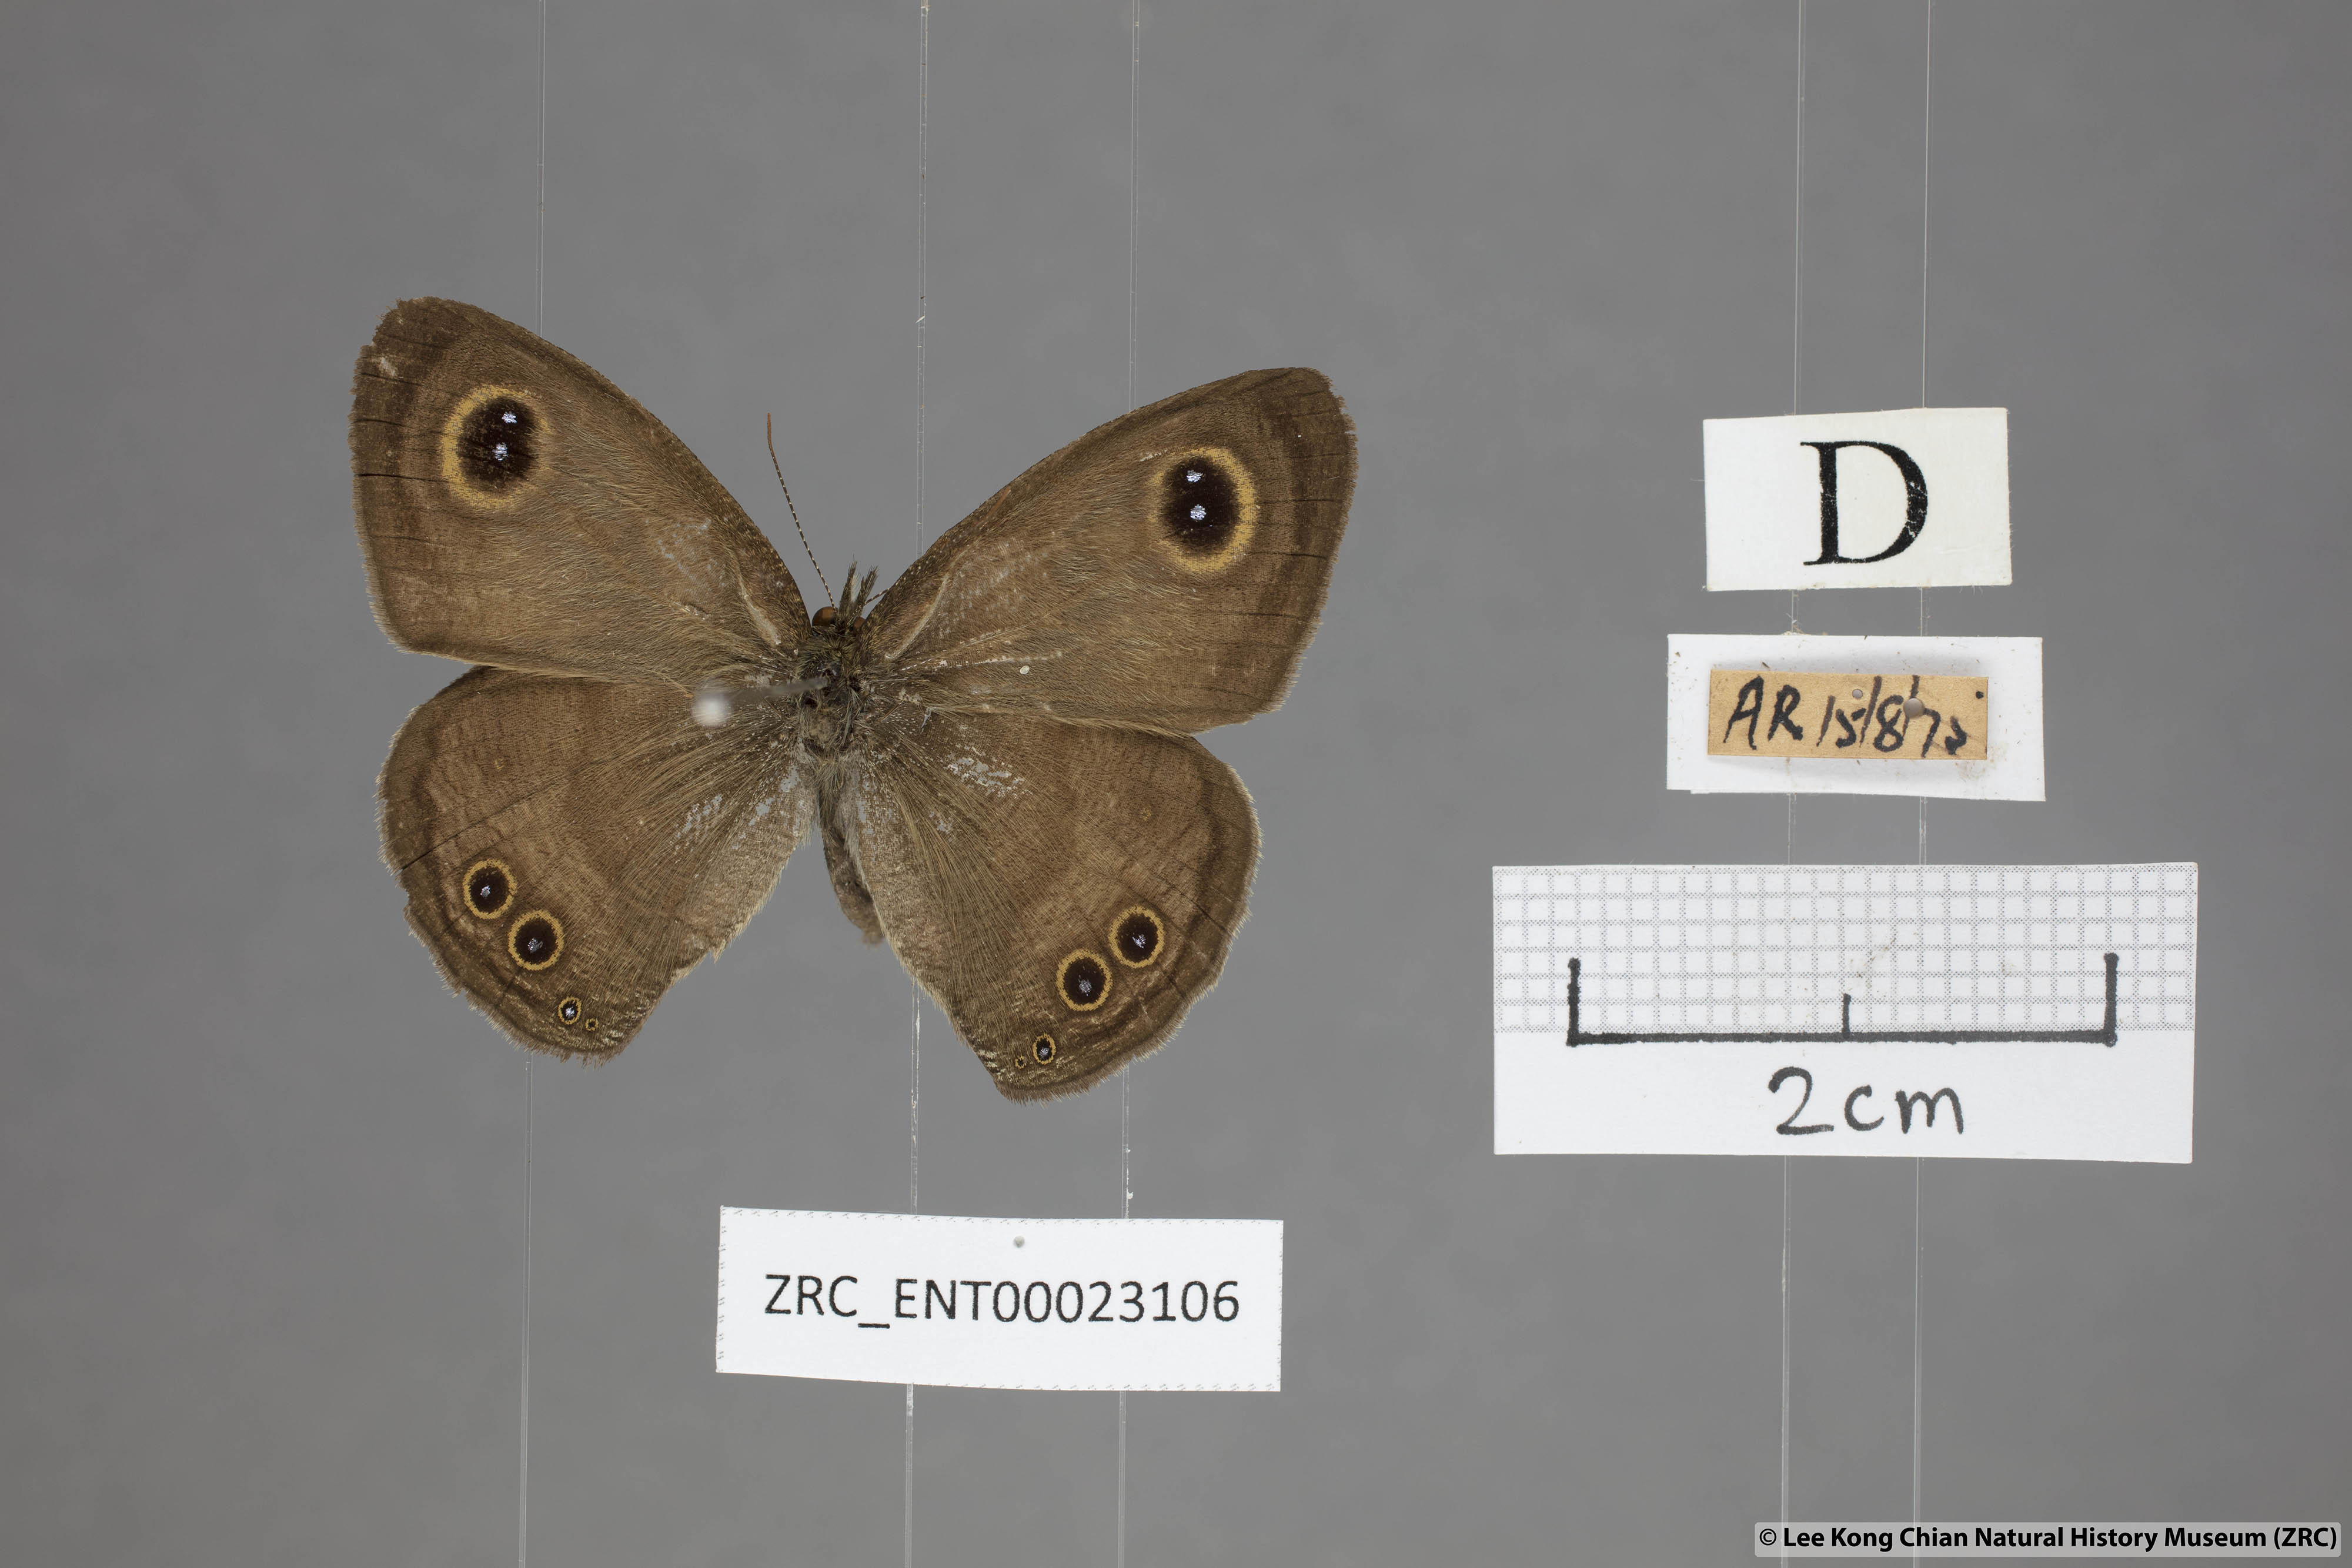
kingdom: Animalia
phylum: Arthropoda
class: Insecta
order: Lepidoptera
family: Nymphalidae
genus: Ypthima
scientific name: Ypthima baldus
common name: Common five-ring
